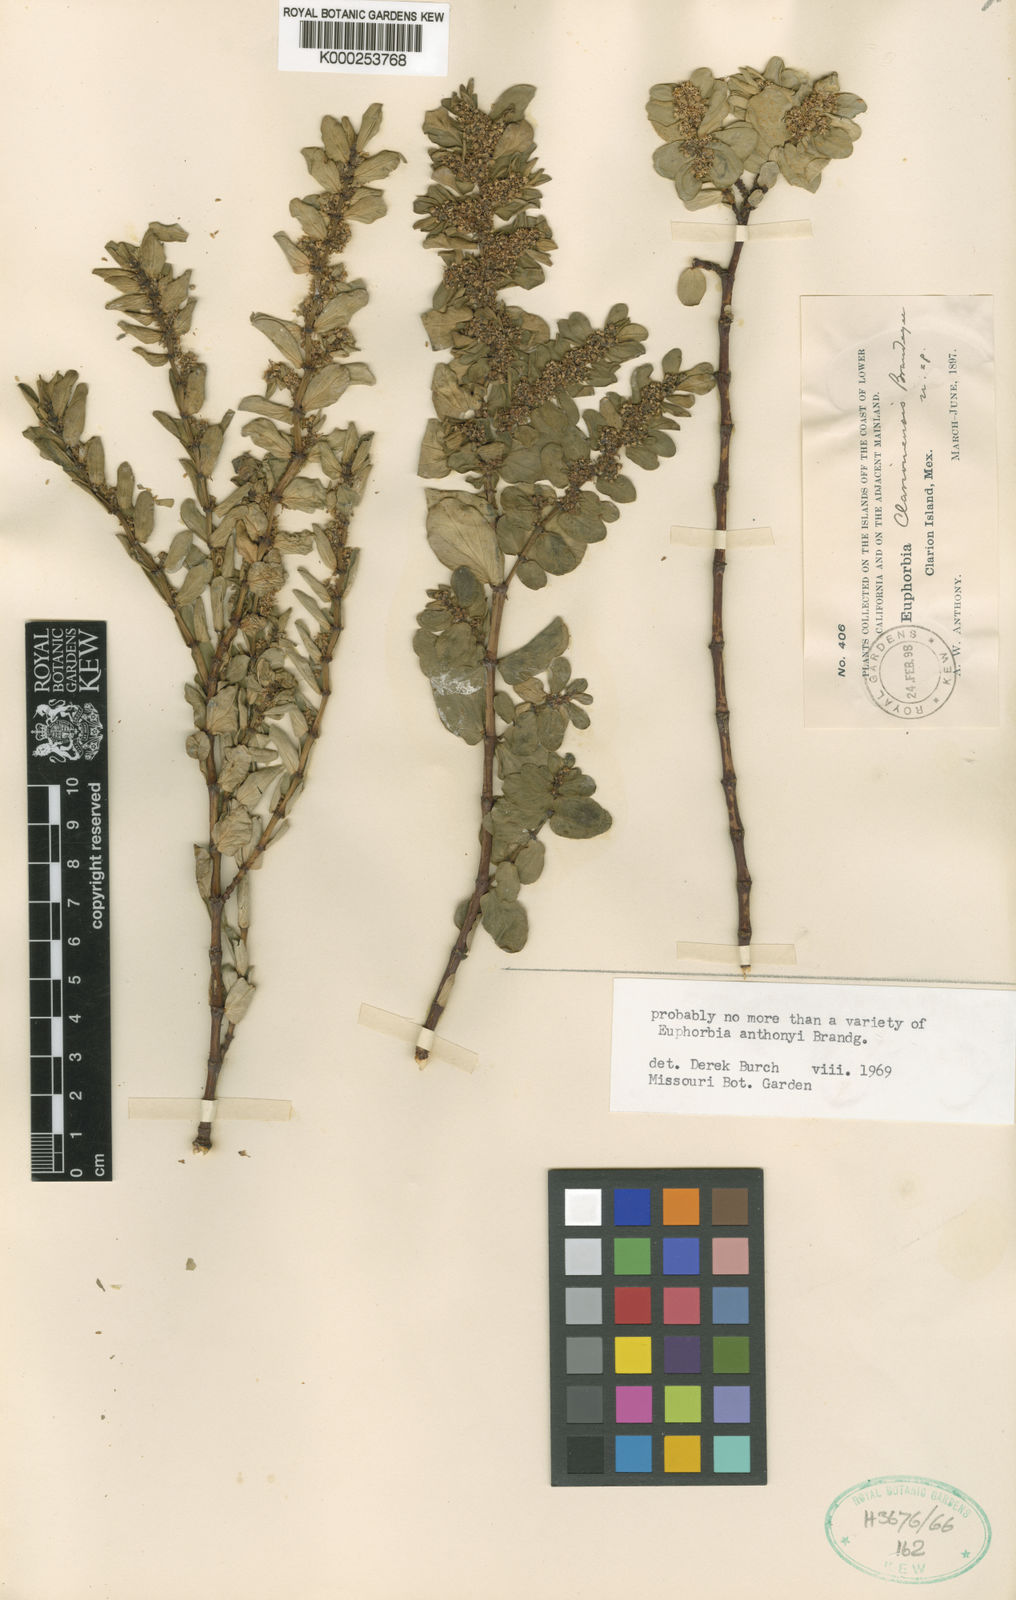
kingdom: Plantae
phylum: Tracheophyta
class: Magnoliopsida
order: Malpighiales
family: Euphorbiaceae
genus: Euphorbia
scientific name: Euphorbia anthonyi
